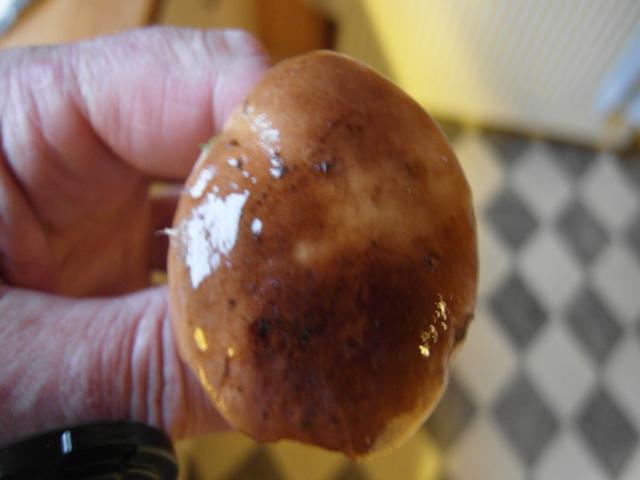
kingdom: Fungi
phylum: Basidiomycota
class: Agaricomycetes
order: Agaricales
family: Tricholomataceae
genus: Tricholoma
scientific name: Tricholoma stans
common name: stolt ridderhat
